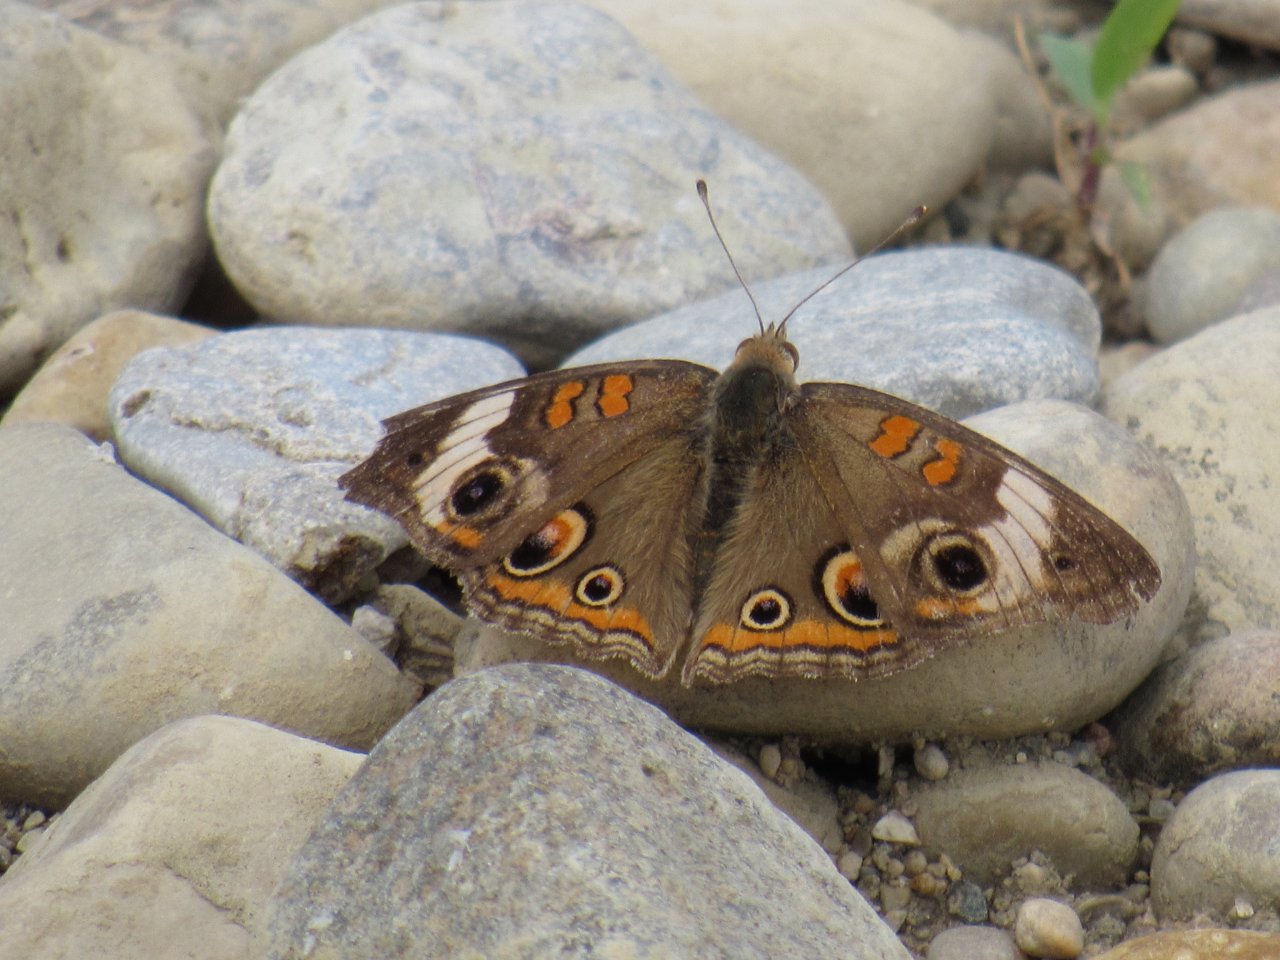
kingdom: Animalia
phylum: Arthropoda
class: Insecta
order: Lepidoptera
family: Nymphalidae
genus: Junonia
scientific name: Junonia coenia
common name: Common Buckeye
